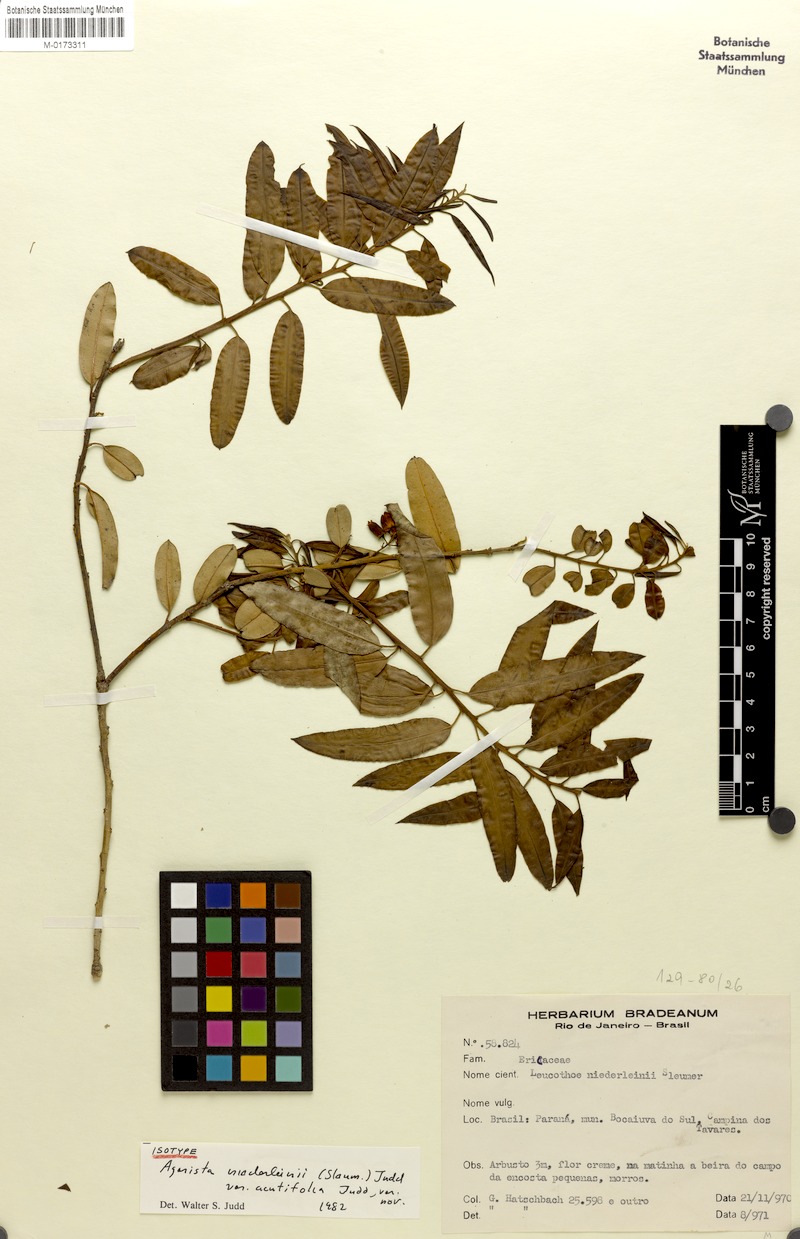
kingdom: Plantae
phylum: Tracheophyta
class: Magnoliopsida
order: Ericales
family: Ericaceae
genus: Agarista
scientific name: Agarista niederleinii
